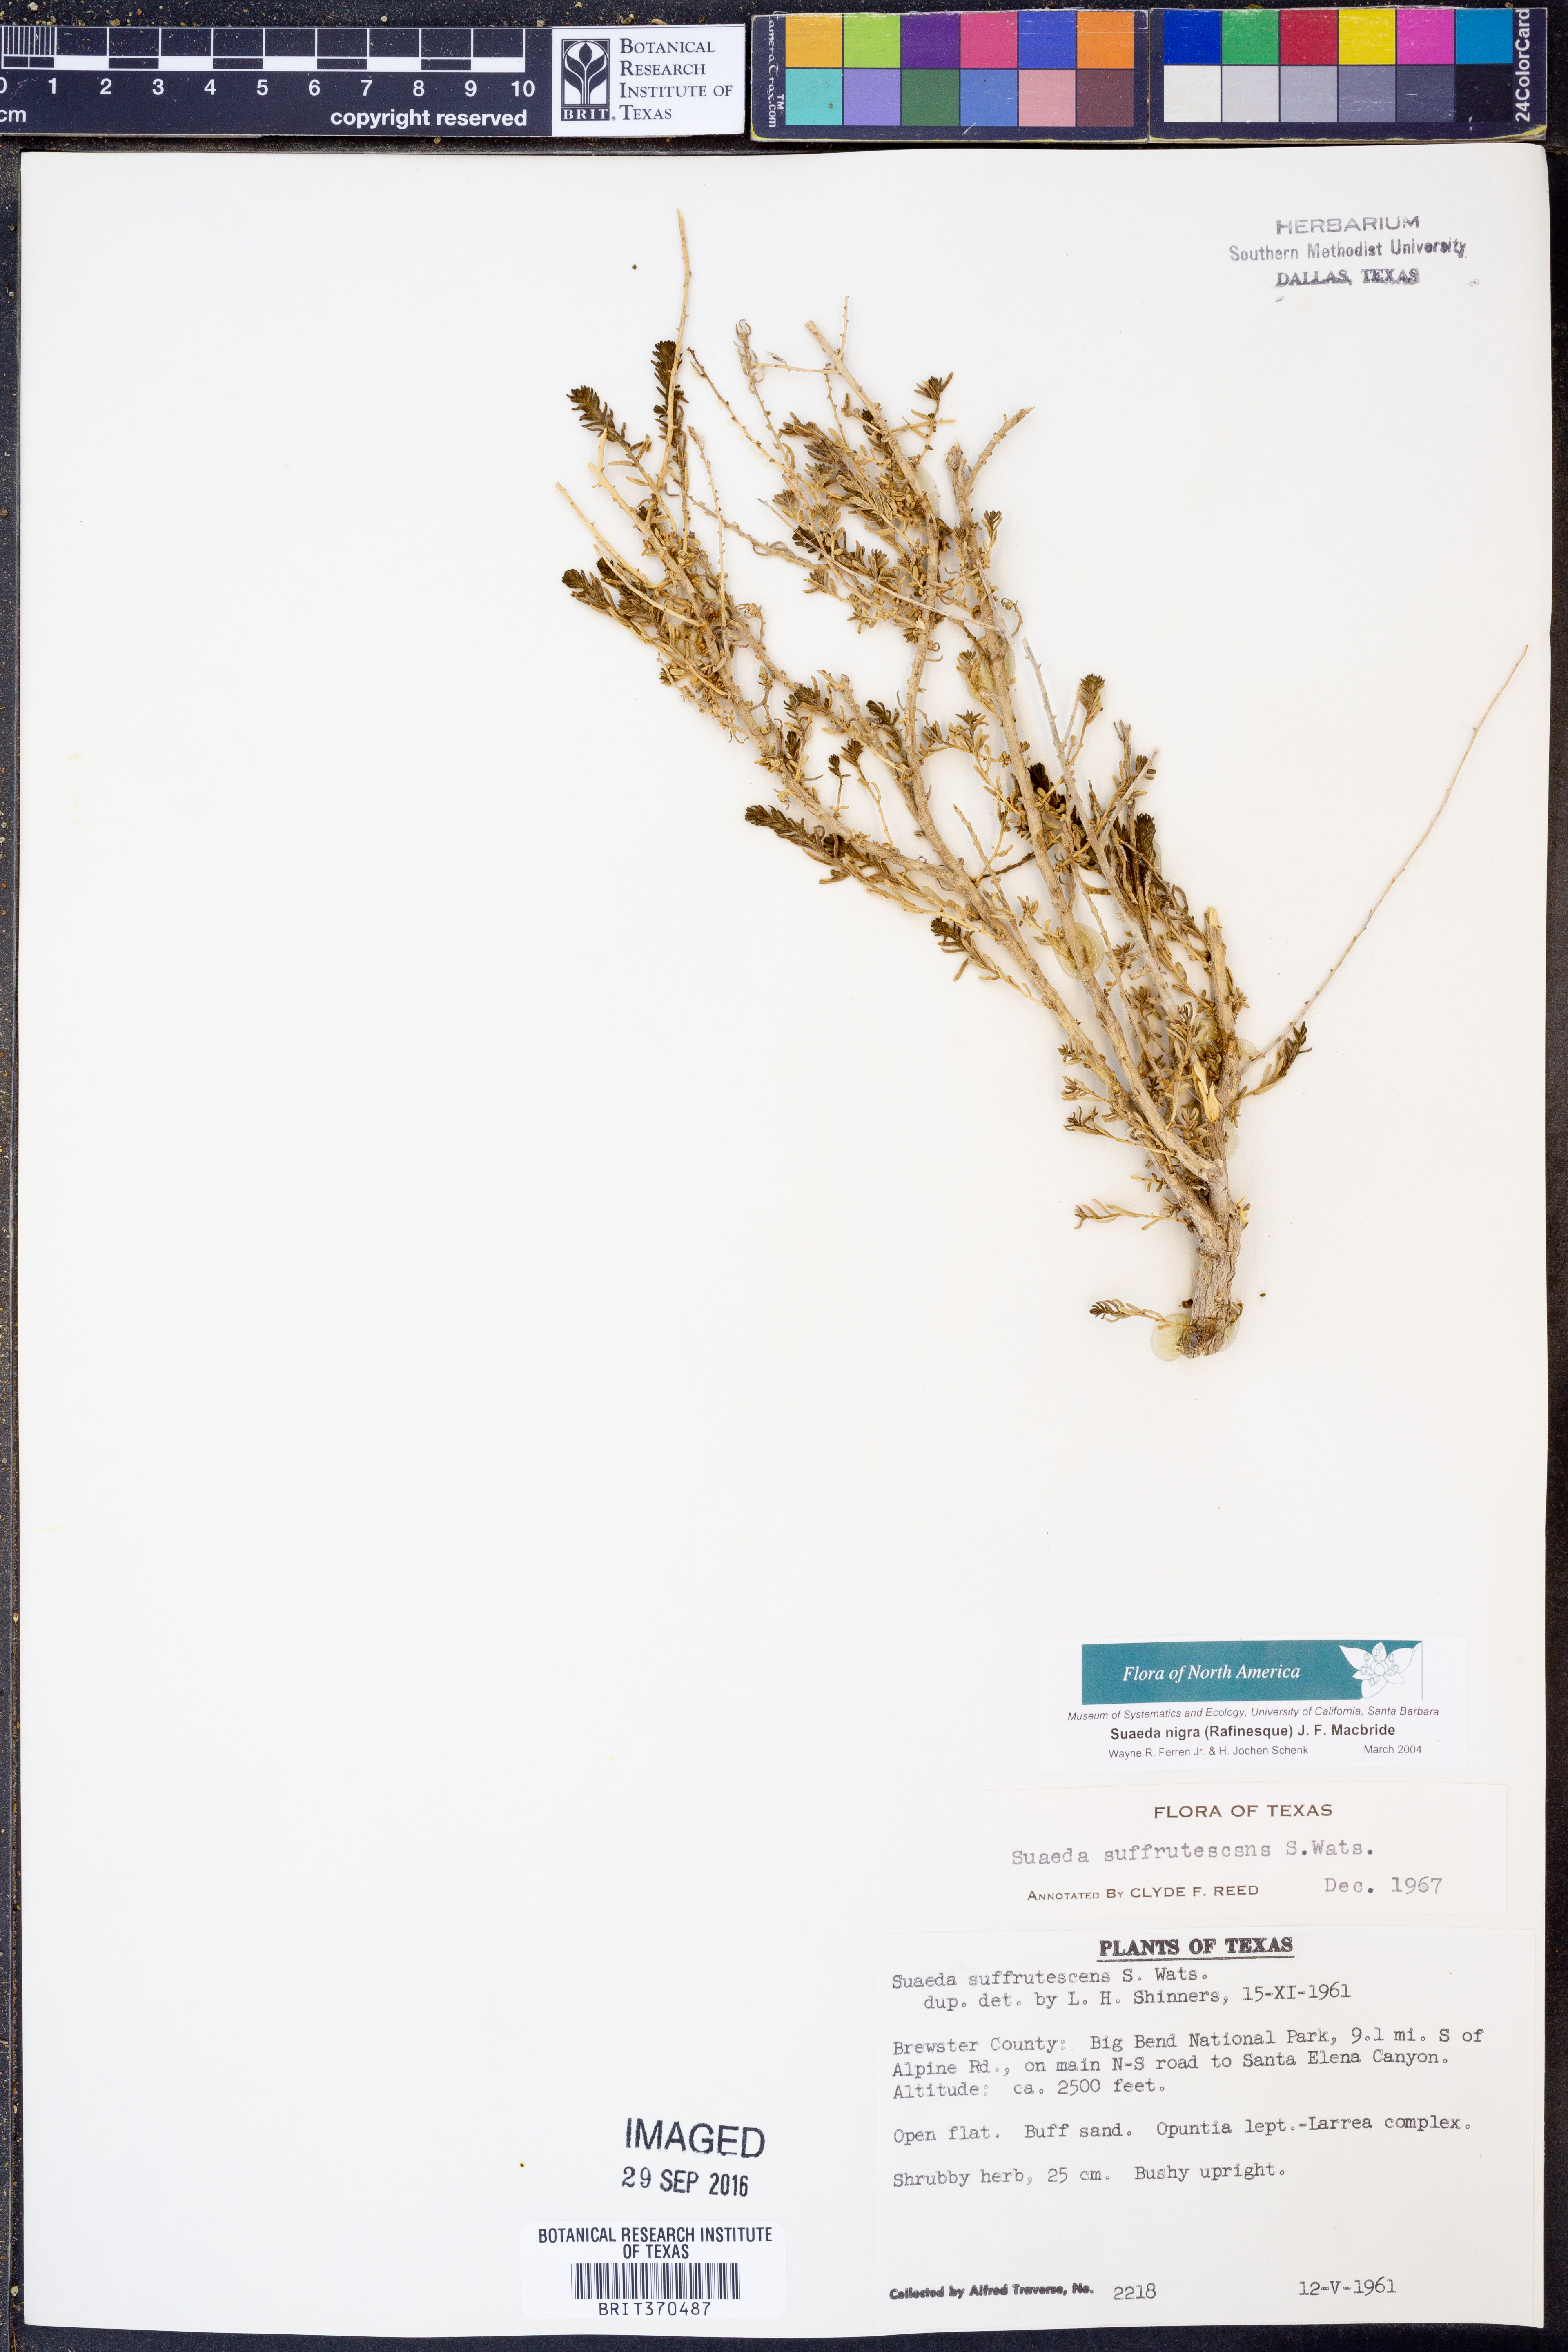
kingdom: Plantae
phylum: Tracheophyta
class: Magnoliopsida
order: Caryophyllales
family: Amaranthaceae
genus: Suaeda
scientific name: Suaeda nigra
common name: Bush seepweed
